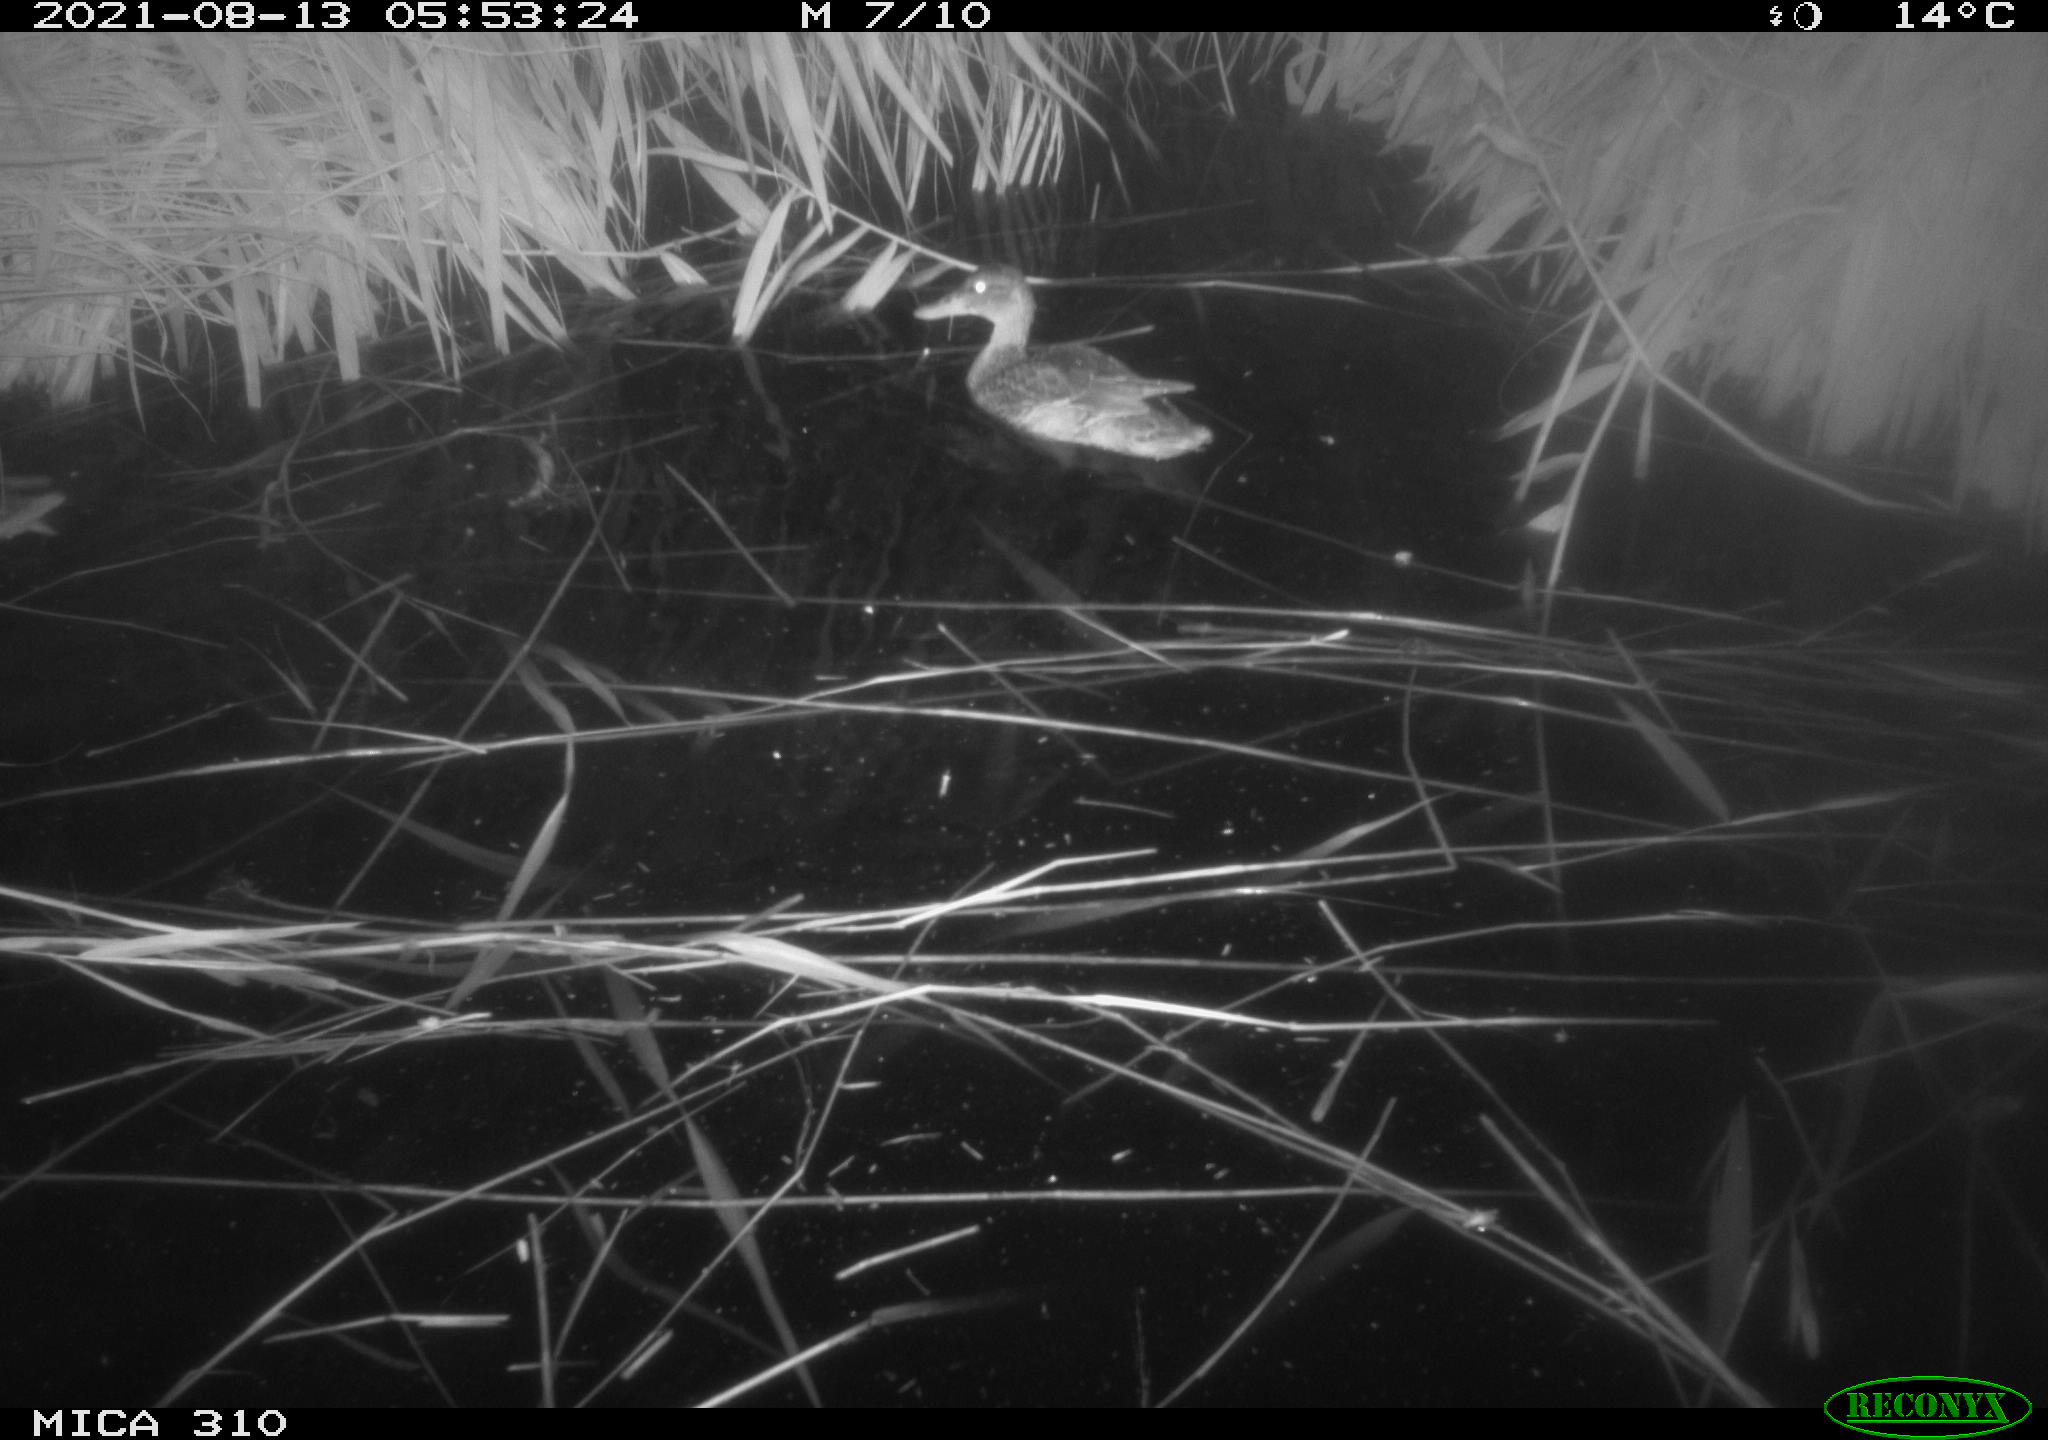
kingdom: Animalia
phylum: Chordata
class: Aves
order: Anseriformes
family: Anatidae
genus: Anas
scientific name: Anas platyrhynchos
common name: Mallard
